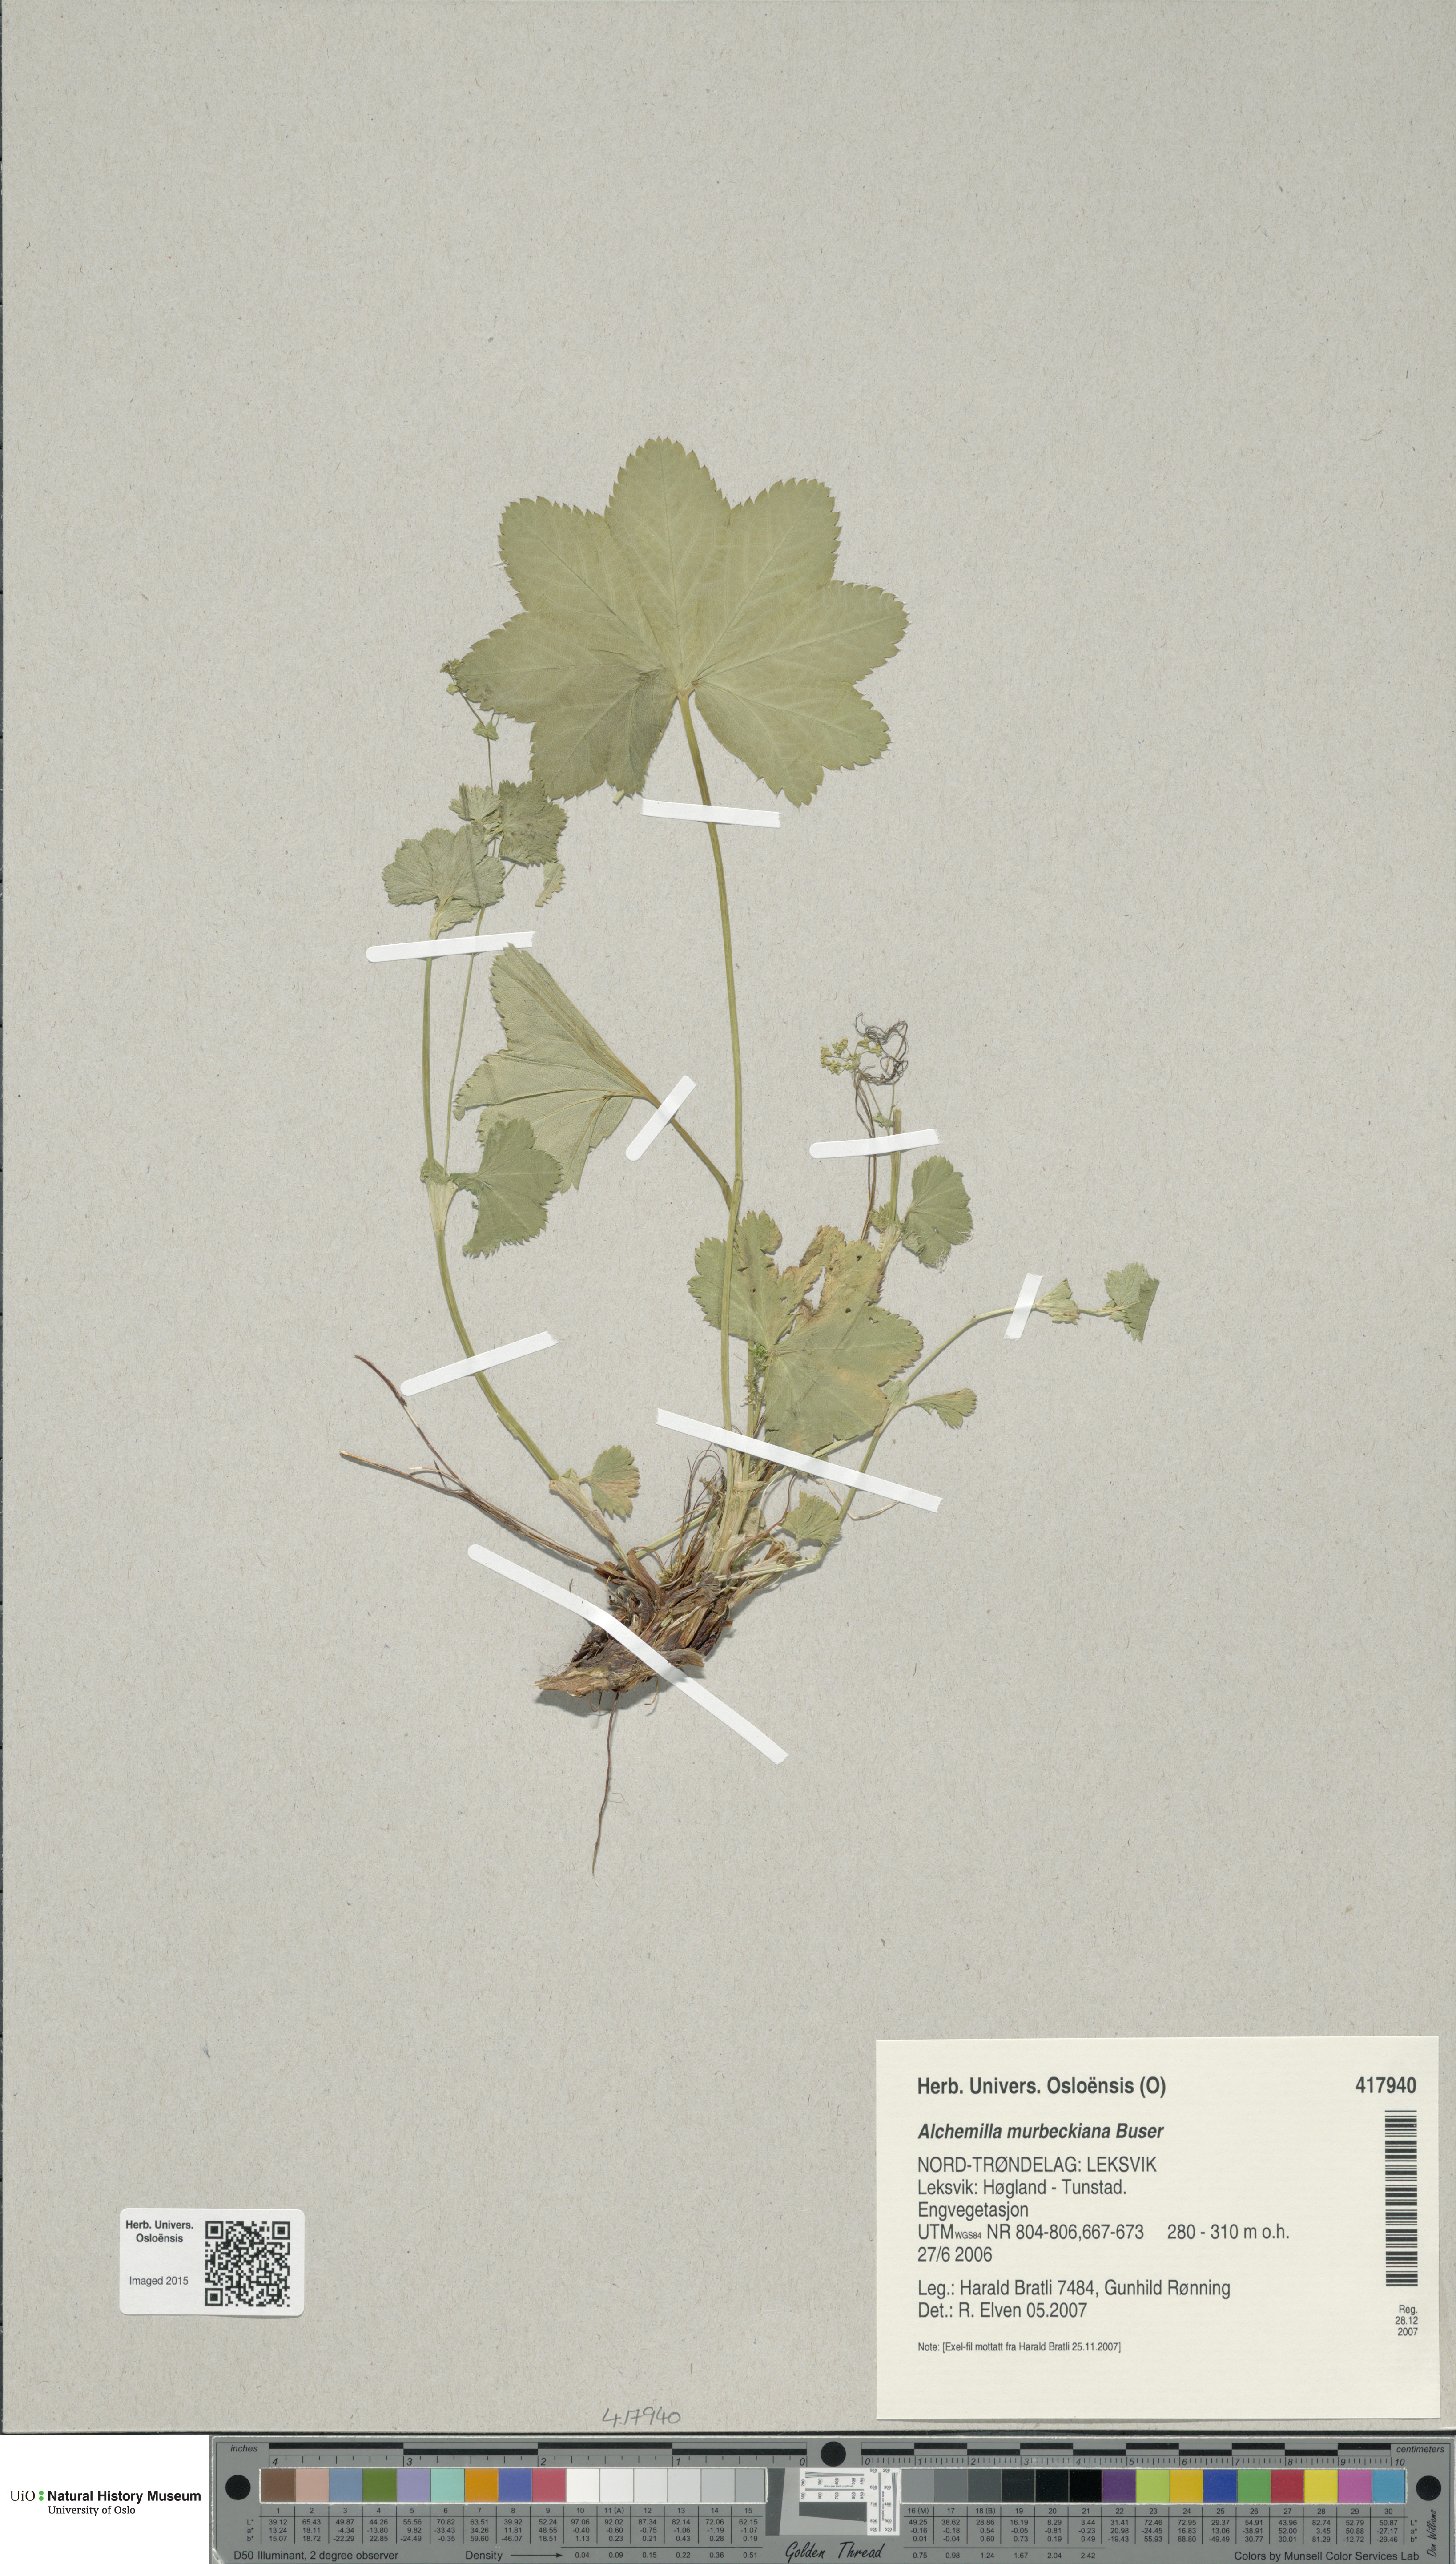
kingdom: Plantae
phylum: Tracheophyta
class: Magnoliopsida
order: Rosales
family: Rosaceae
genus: Alchemilla
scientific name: Alchemilla murbeckiana
